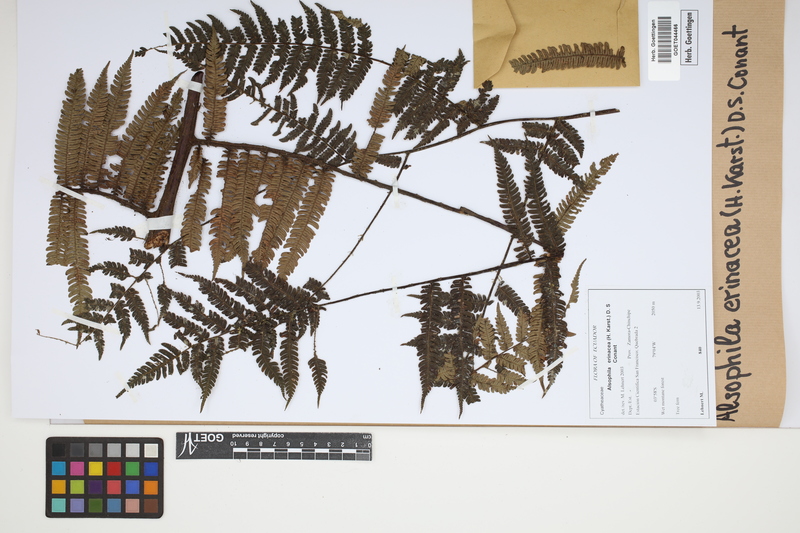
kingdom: Plantae
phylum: Tracheophyta
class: Polypodiopsida
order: Cyatheales
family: Cyatheaceae
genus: Alsophila
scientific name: Alsophila erinacea
